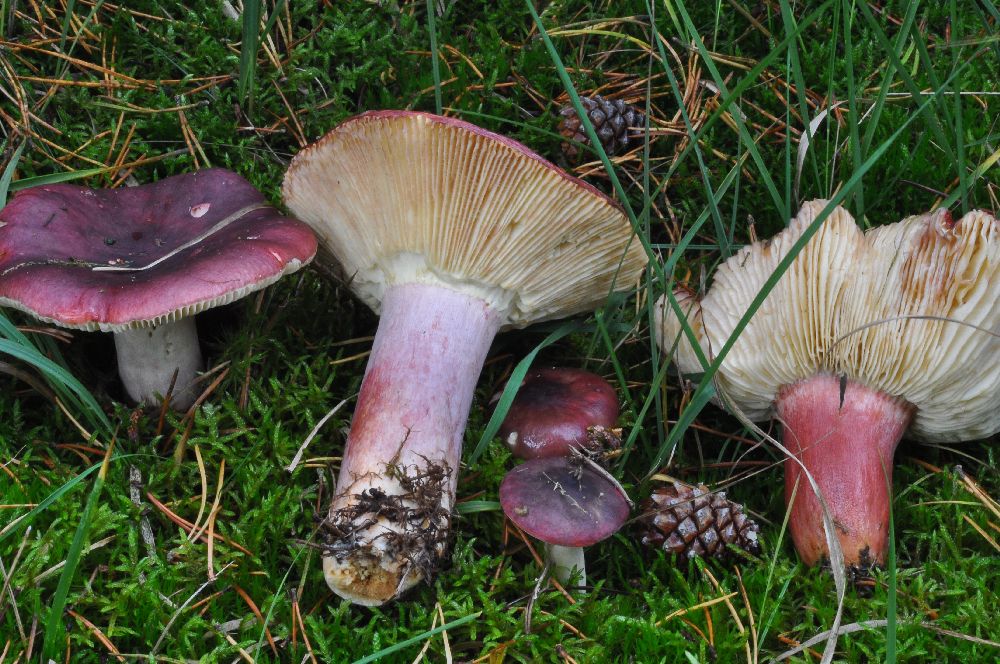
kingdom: Fungi
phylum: Basidiomycota
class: Agaricomycetes
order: Russulales
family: Russulaceae
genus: Russula
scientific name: Russula sardonia
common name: citronbladet skørhat
